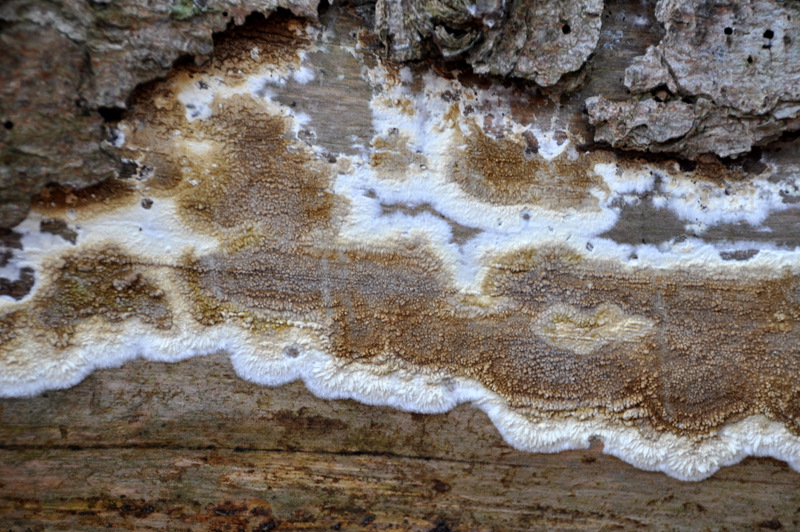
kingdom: Fungi
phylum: Basidiomycota
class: Agaricomycetes
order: Boletales
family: Coniophoraceae
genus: Coniophora
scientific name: Coniophora puteana
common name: gul tømmersvamp
